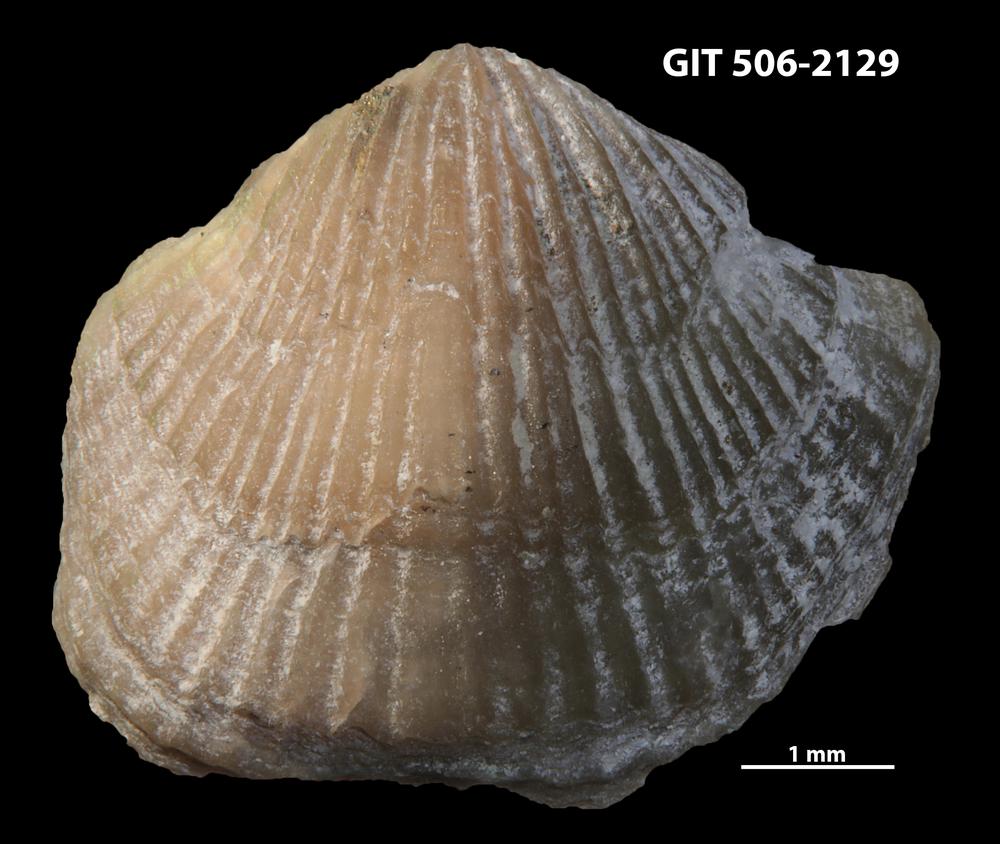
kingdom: Animalia
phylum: Brachiopoda
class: Rhynchonellata
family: Skenidiidae
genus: Skenidioides
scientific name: Skenidioides hymiri
